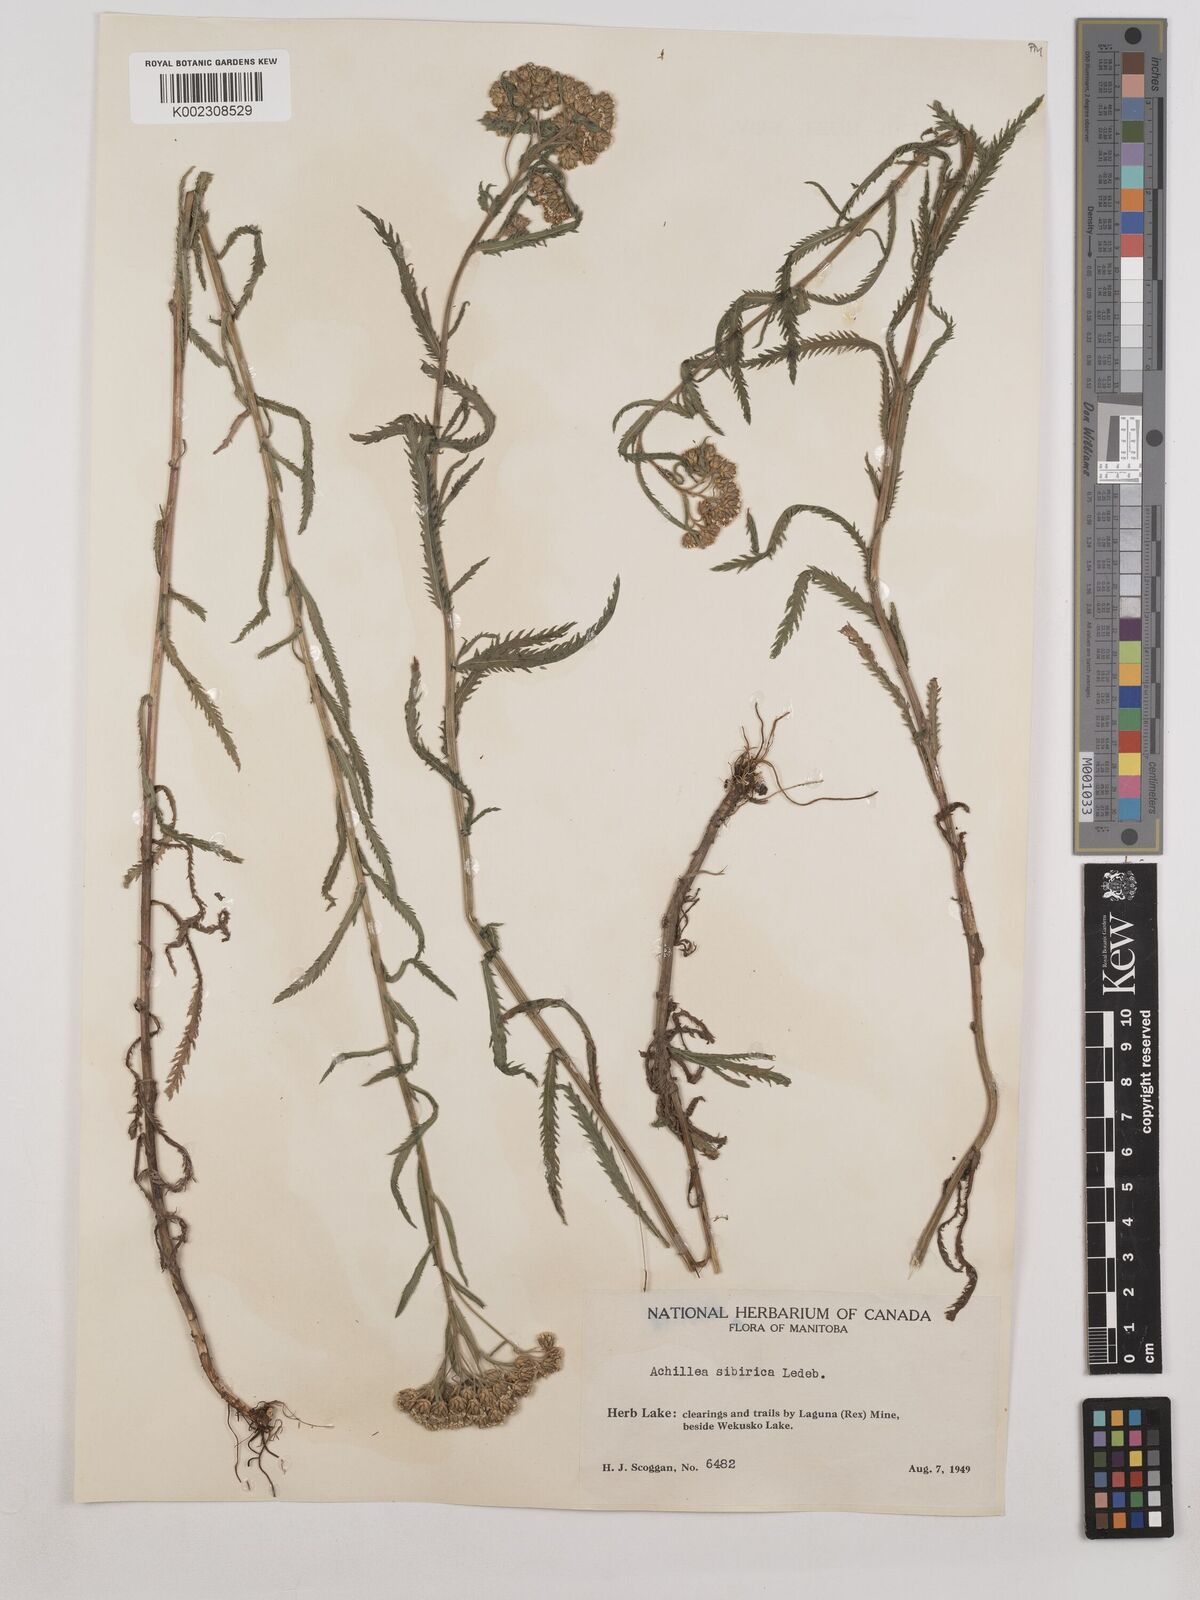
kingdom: Plantae
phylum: Tracheophyta
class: Magnoliopsida
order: Asterales
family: Asteraceae
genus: Achillea
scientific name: Achillea alpina
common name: Siberian yarrow
